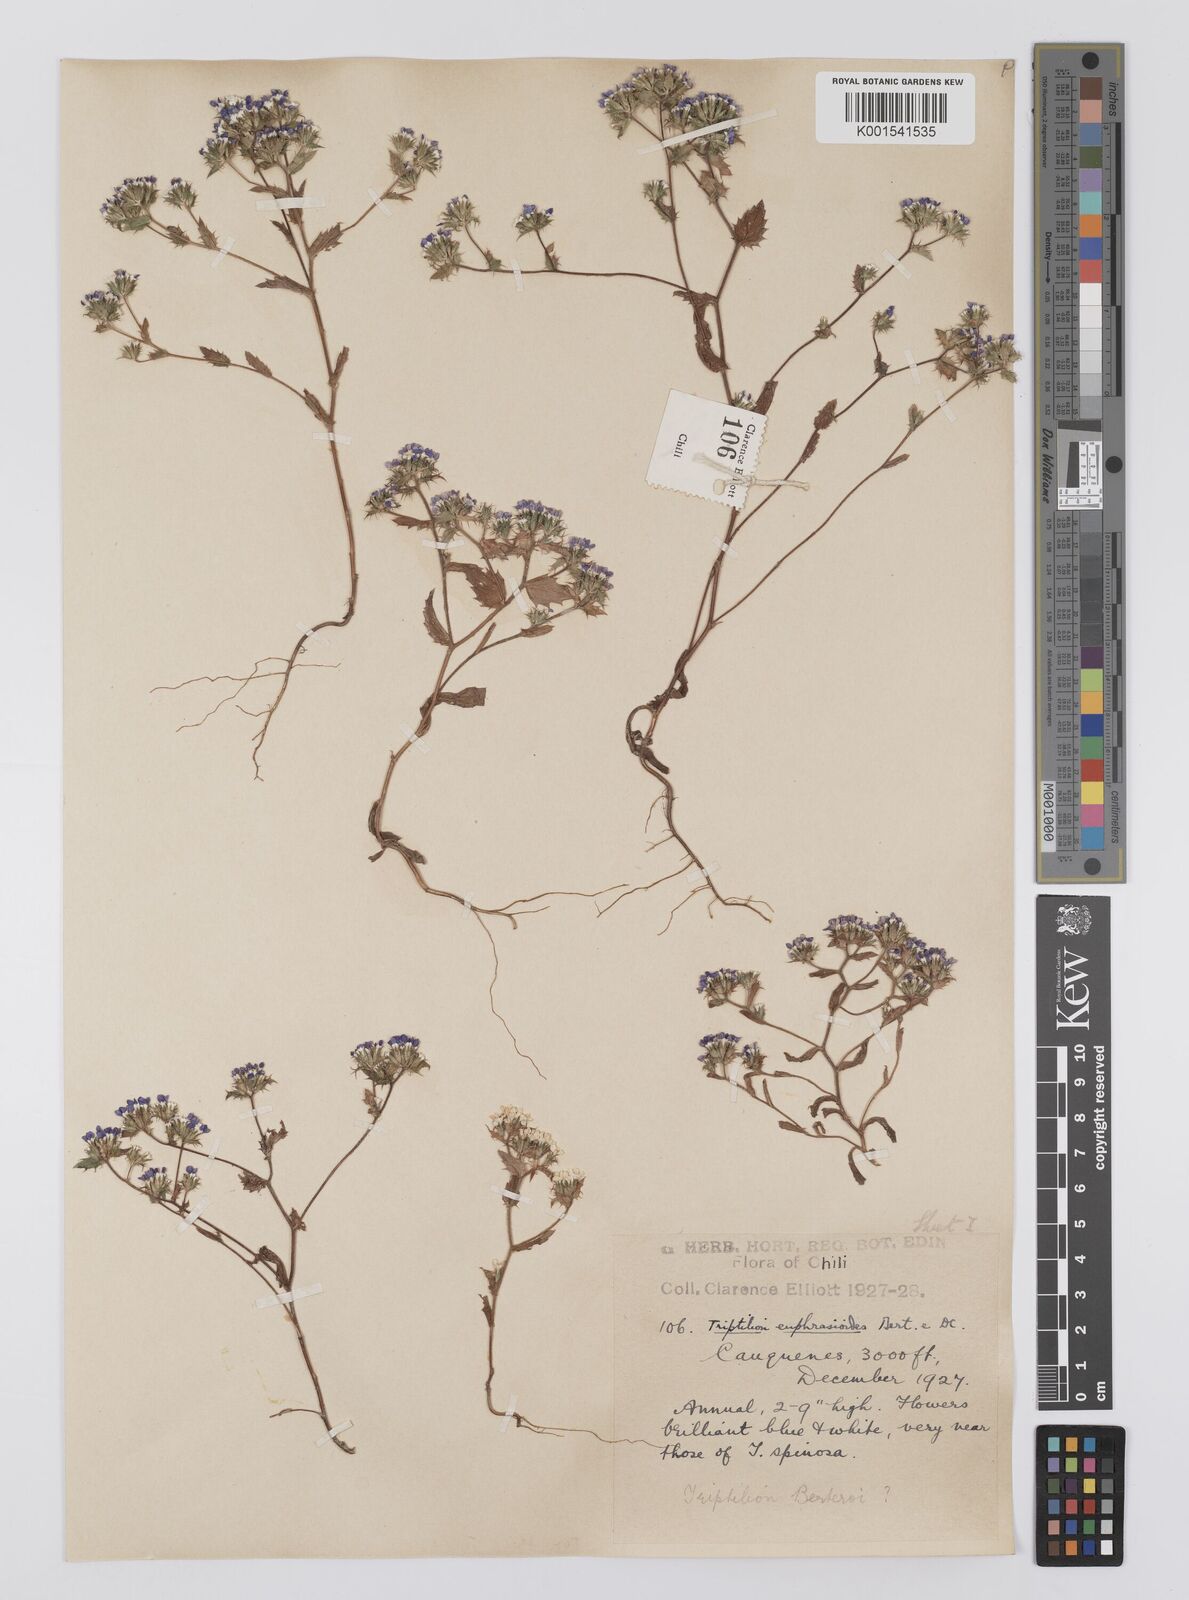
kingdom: Plantae
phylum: Tracheophyta
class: Magnoliopsida
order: Asterales
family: Asteraceae
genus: Triptilion
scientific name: Triptilion achilleae
